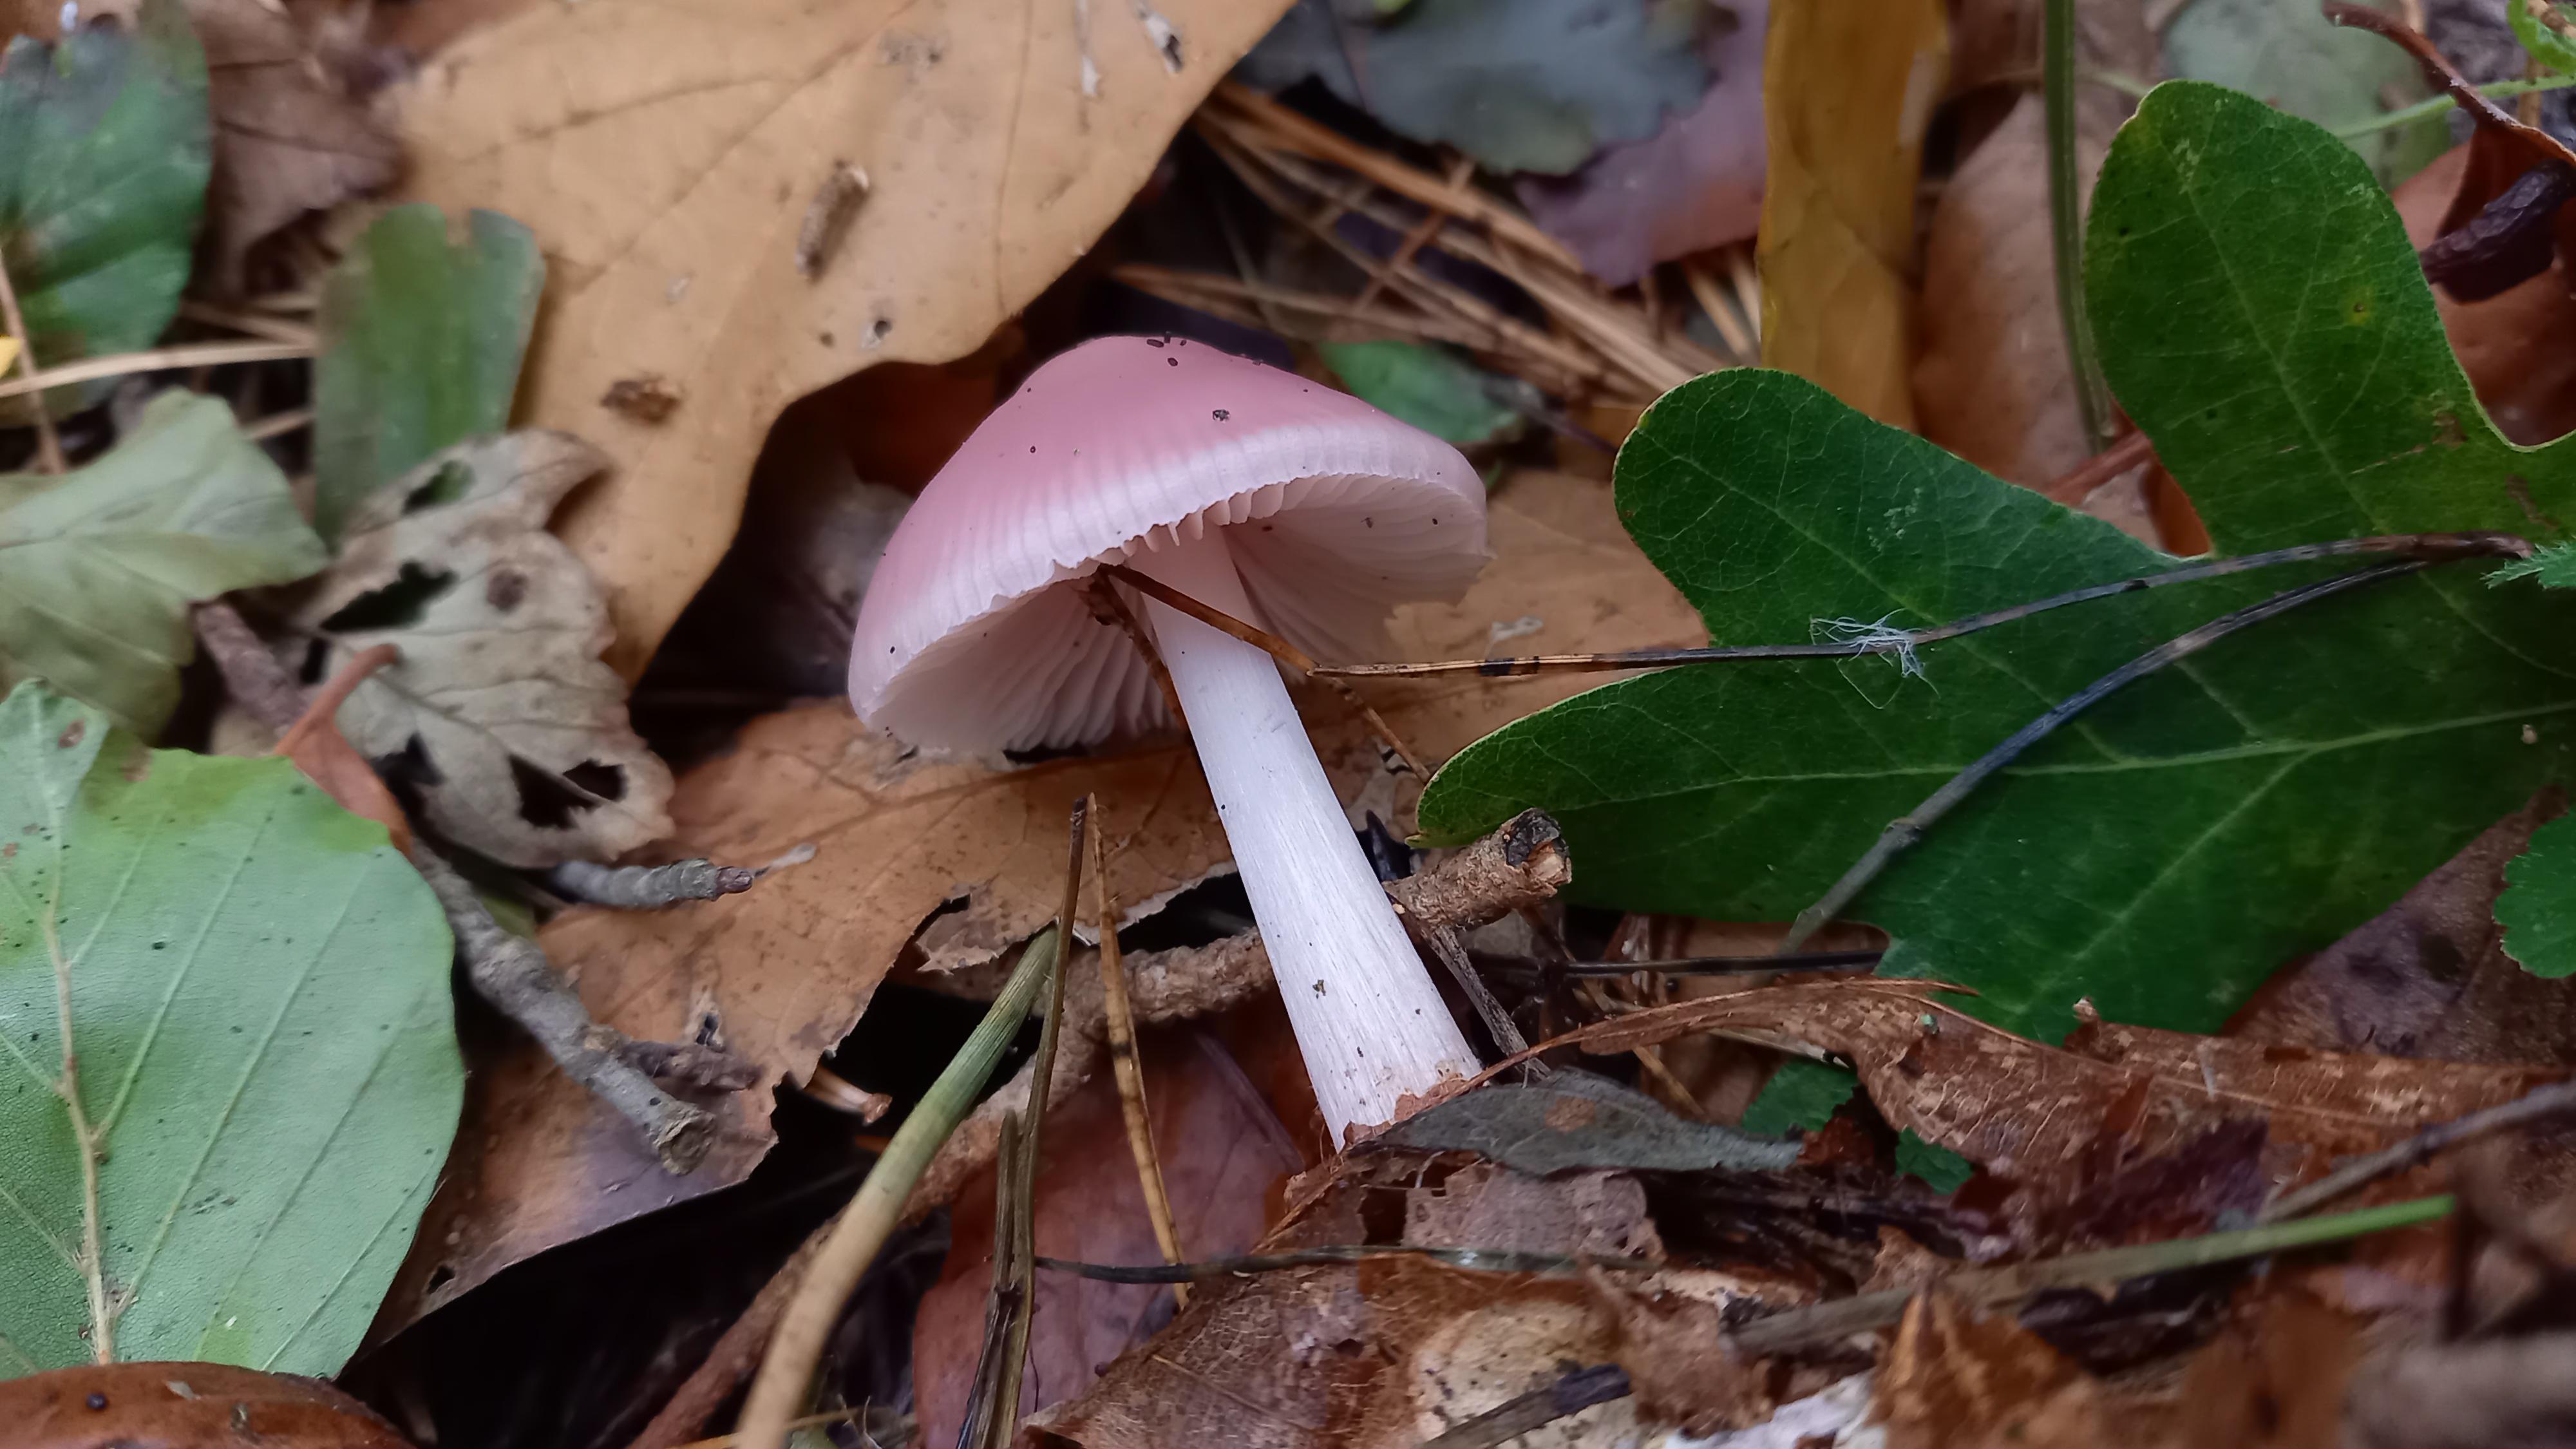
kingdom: Fungi
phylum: Basidiomycota
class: Agaricomycetes
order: Agaricales
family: Mycenaceae
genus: Mycena
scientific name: Mycena rosea
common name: rosa huesvamp
